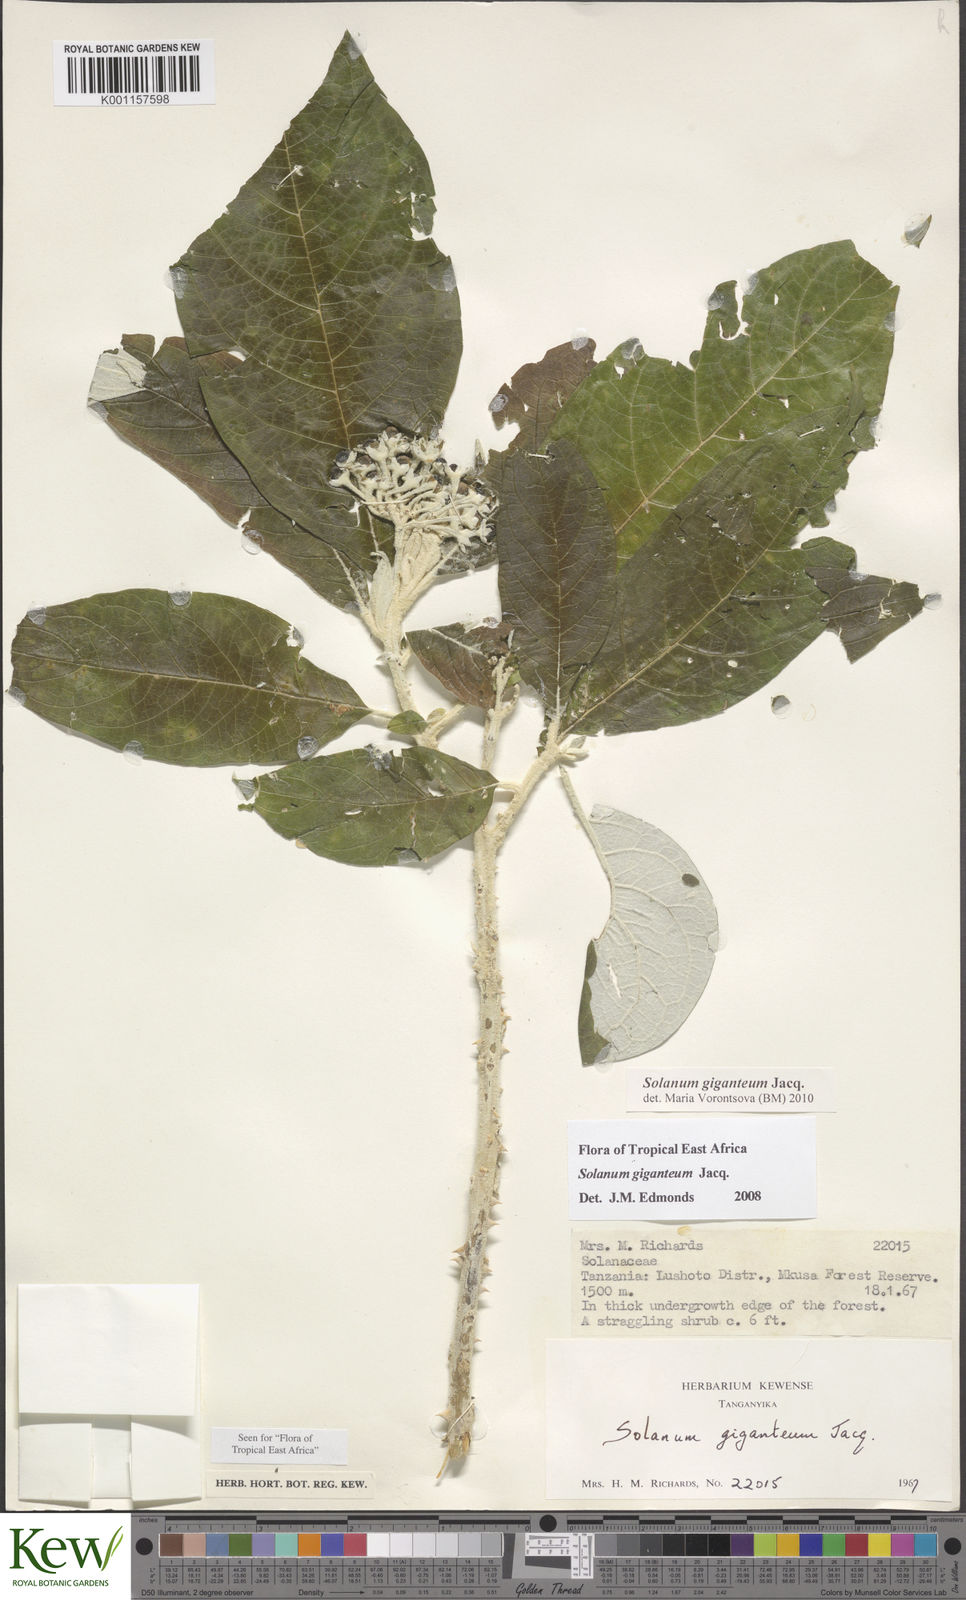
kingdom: Plantae
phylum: Tracheophyta
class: Magnoliopsida
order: Solanales
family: Solanaceae
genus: Solanum
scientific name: Solanum giganteum
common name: Healing-leaf-tree
